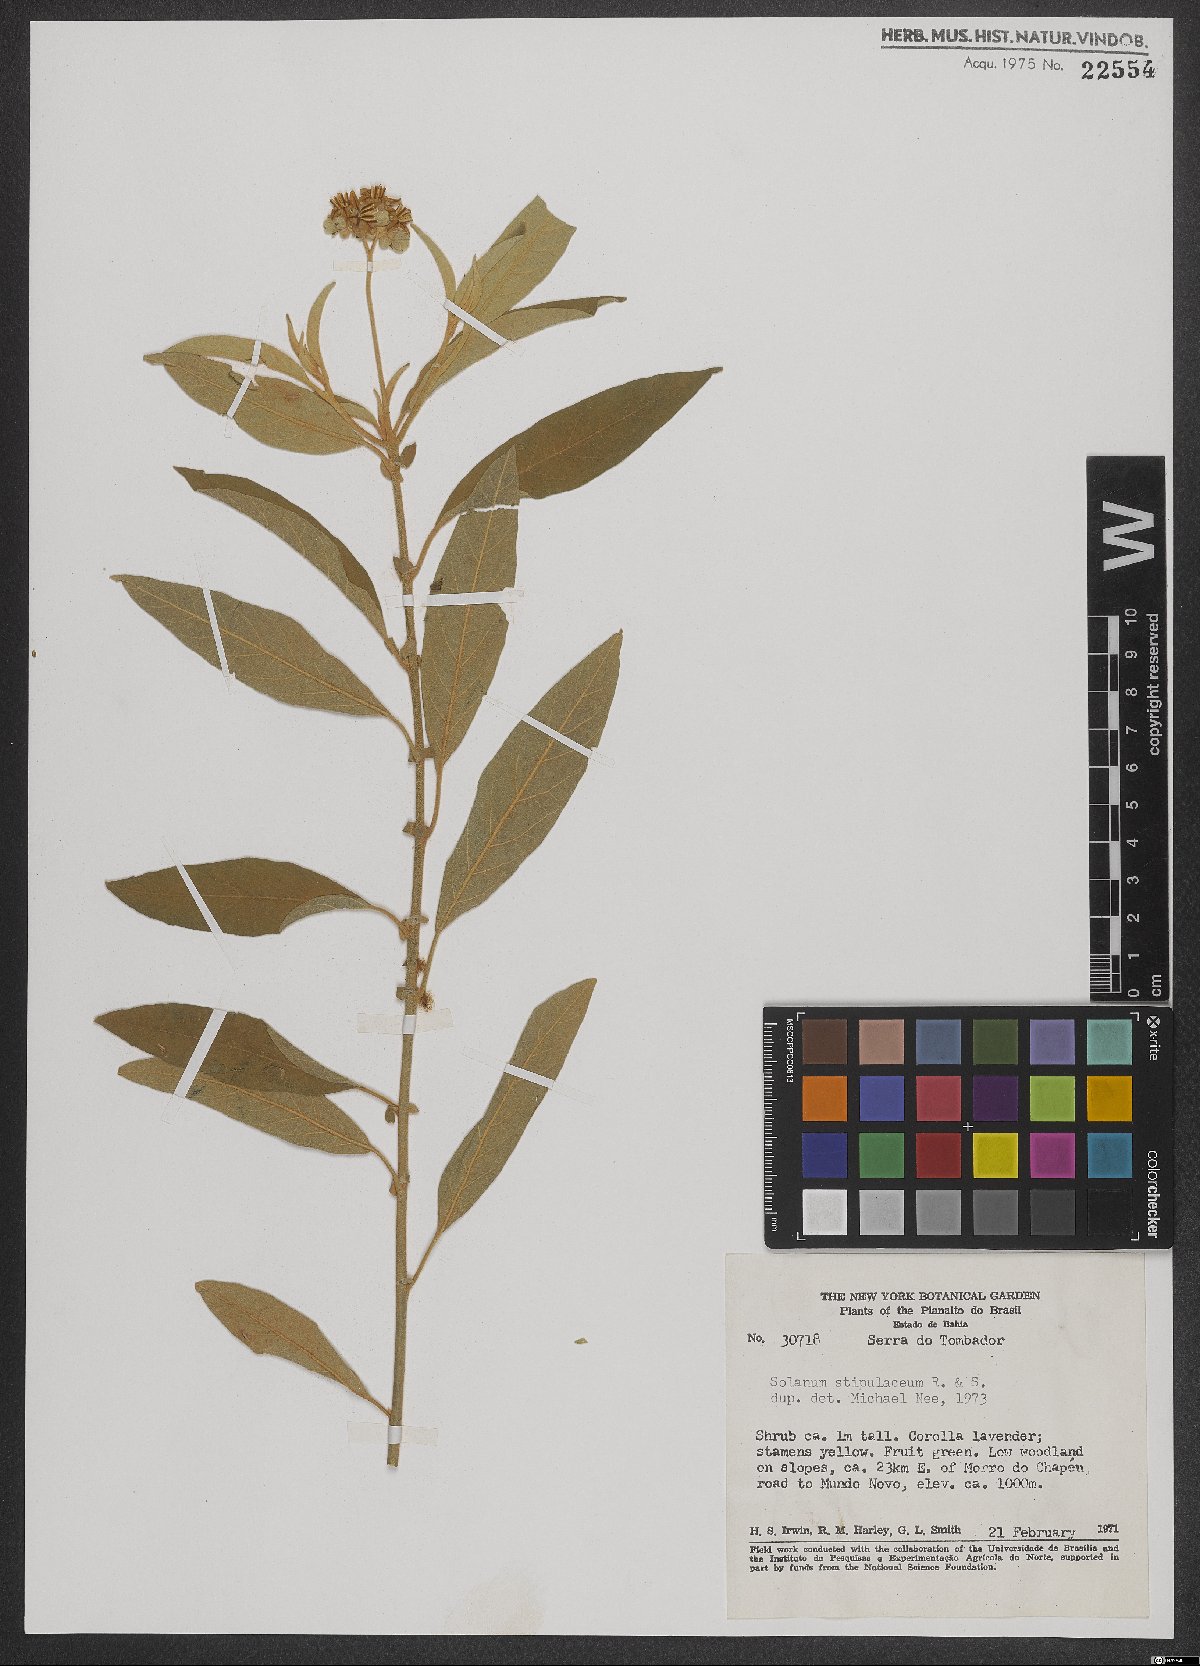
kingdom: Plantae
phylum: Tracheophyta
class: Magnoliopsida
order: Solanales
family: Solanaceae
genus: Solanum
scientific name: Solanum stipulaceum
